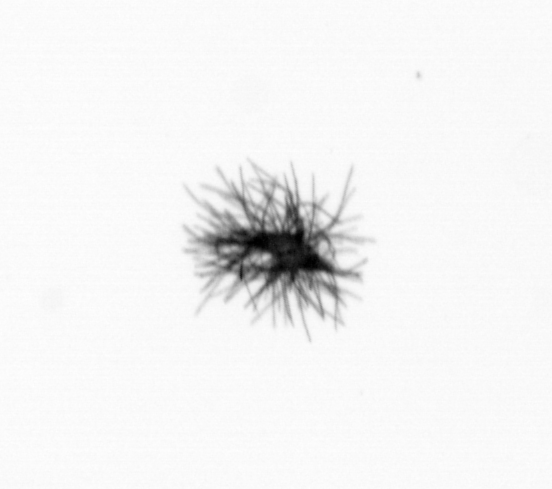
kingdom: Bacteria
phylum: Cyanobacteria
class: Cyanobacteriia
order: Cyanobacteriales
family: Microcoleaceae
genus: Trichodesmium
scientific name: Trichodesmium
